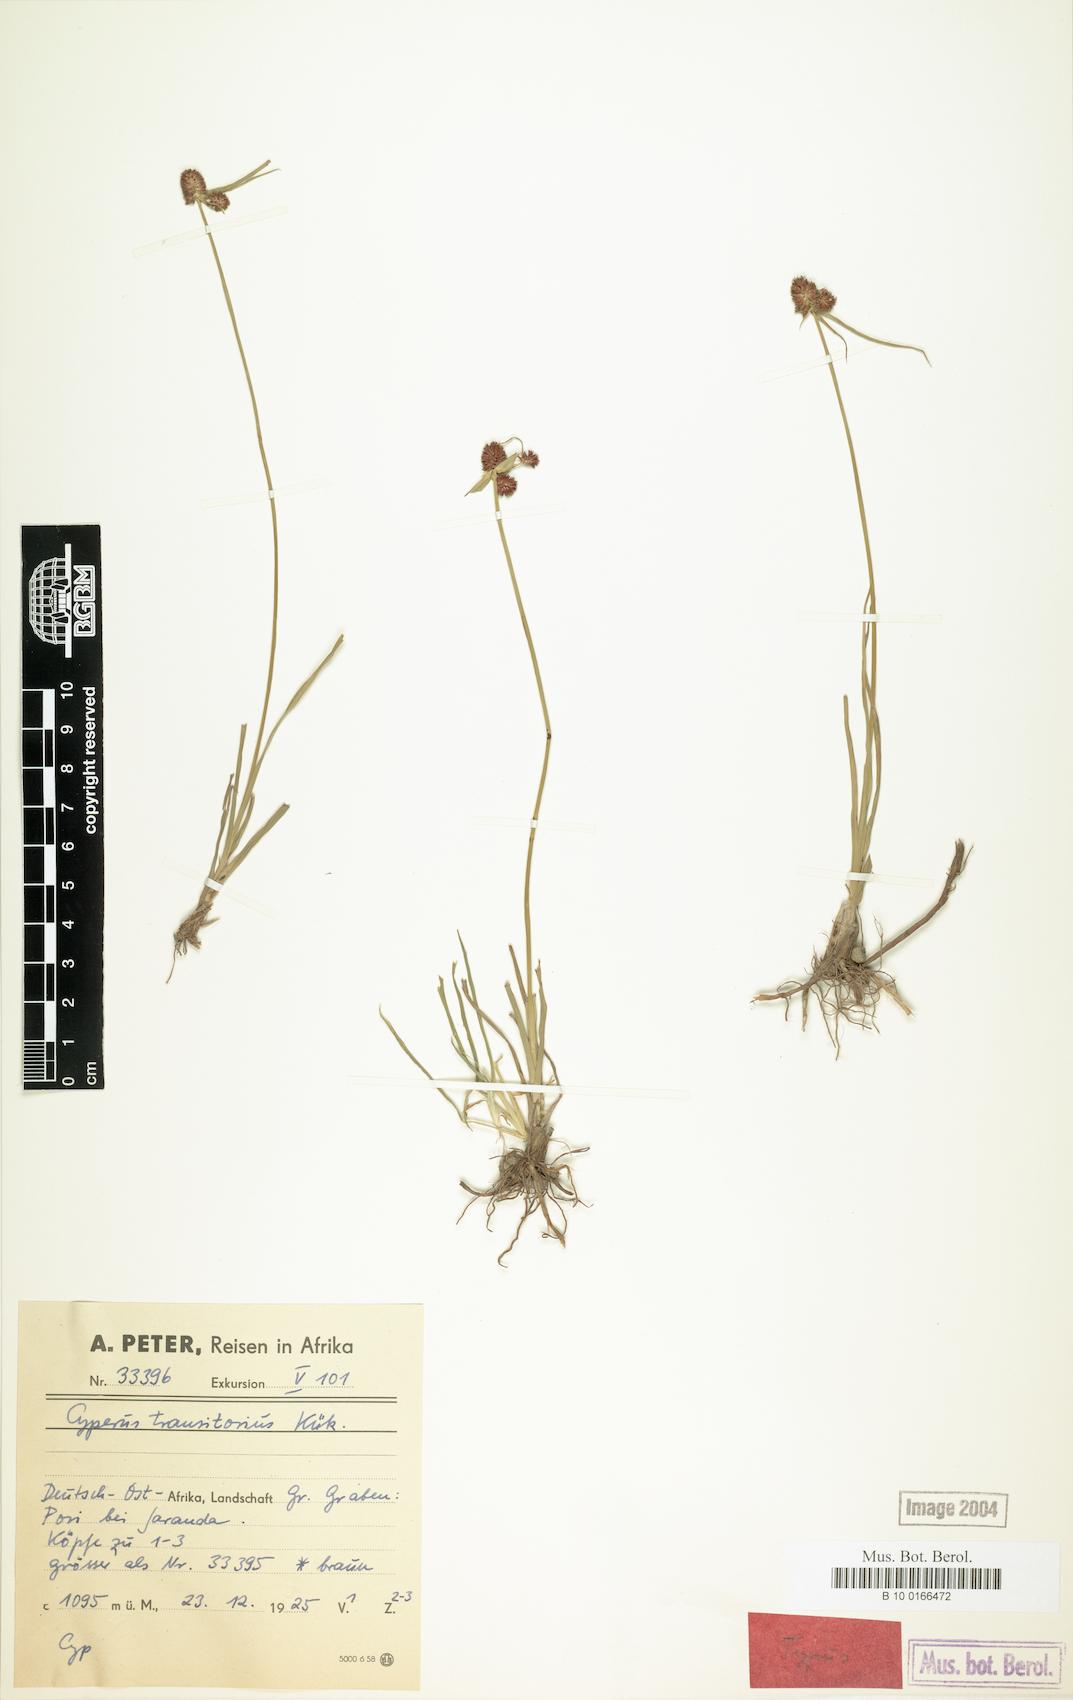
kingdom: Plantae
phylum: Tracheophyta
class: Liliopsida
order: Poales
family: Cyperaceae
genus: Cyperus
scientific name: Cyperus bracheilema
